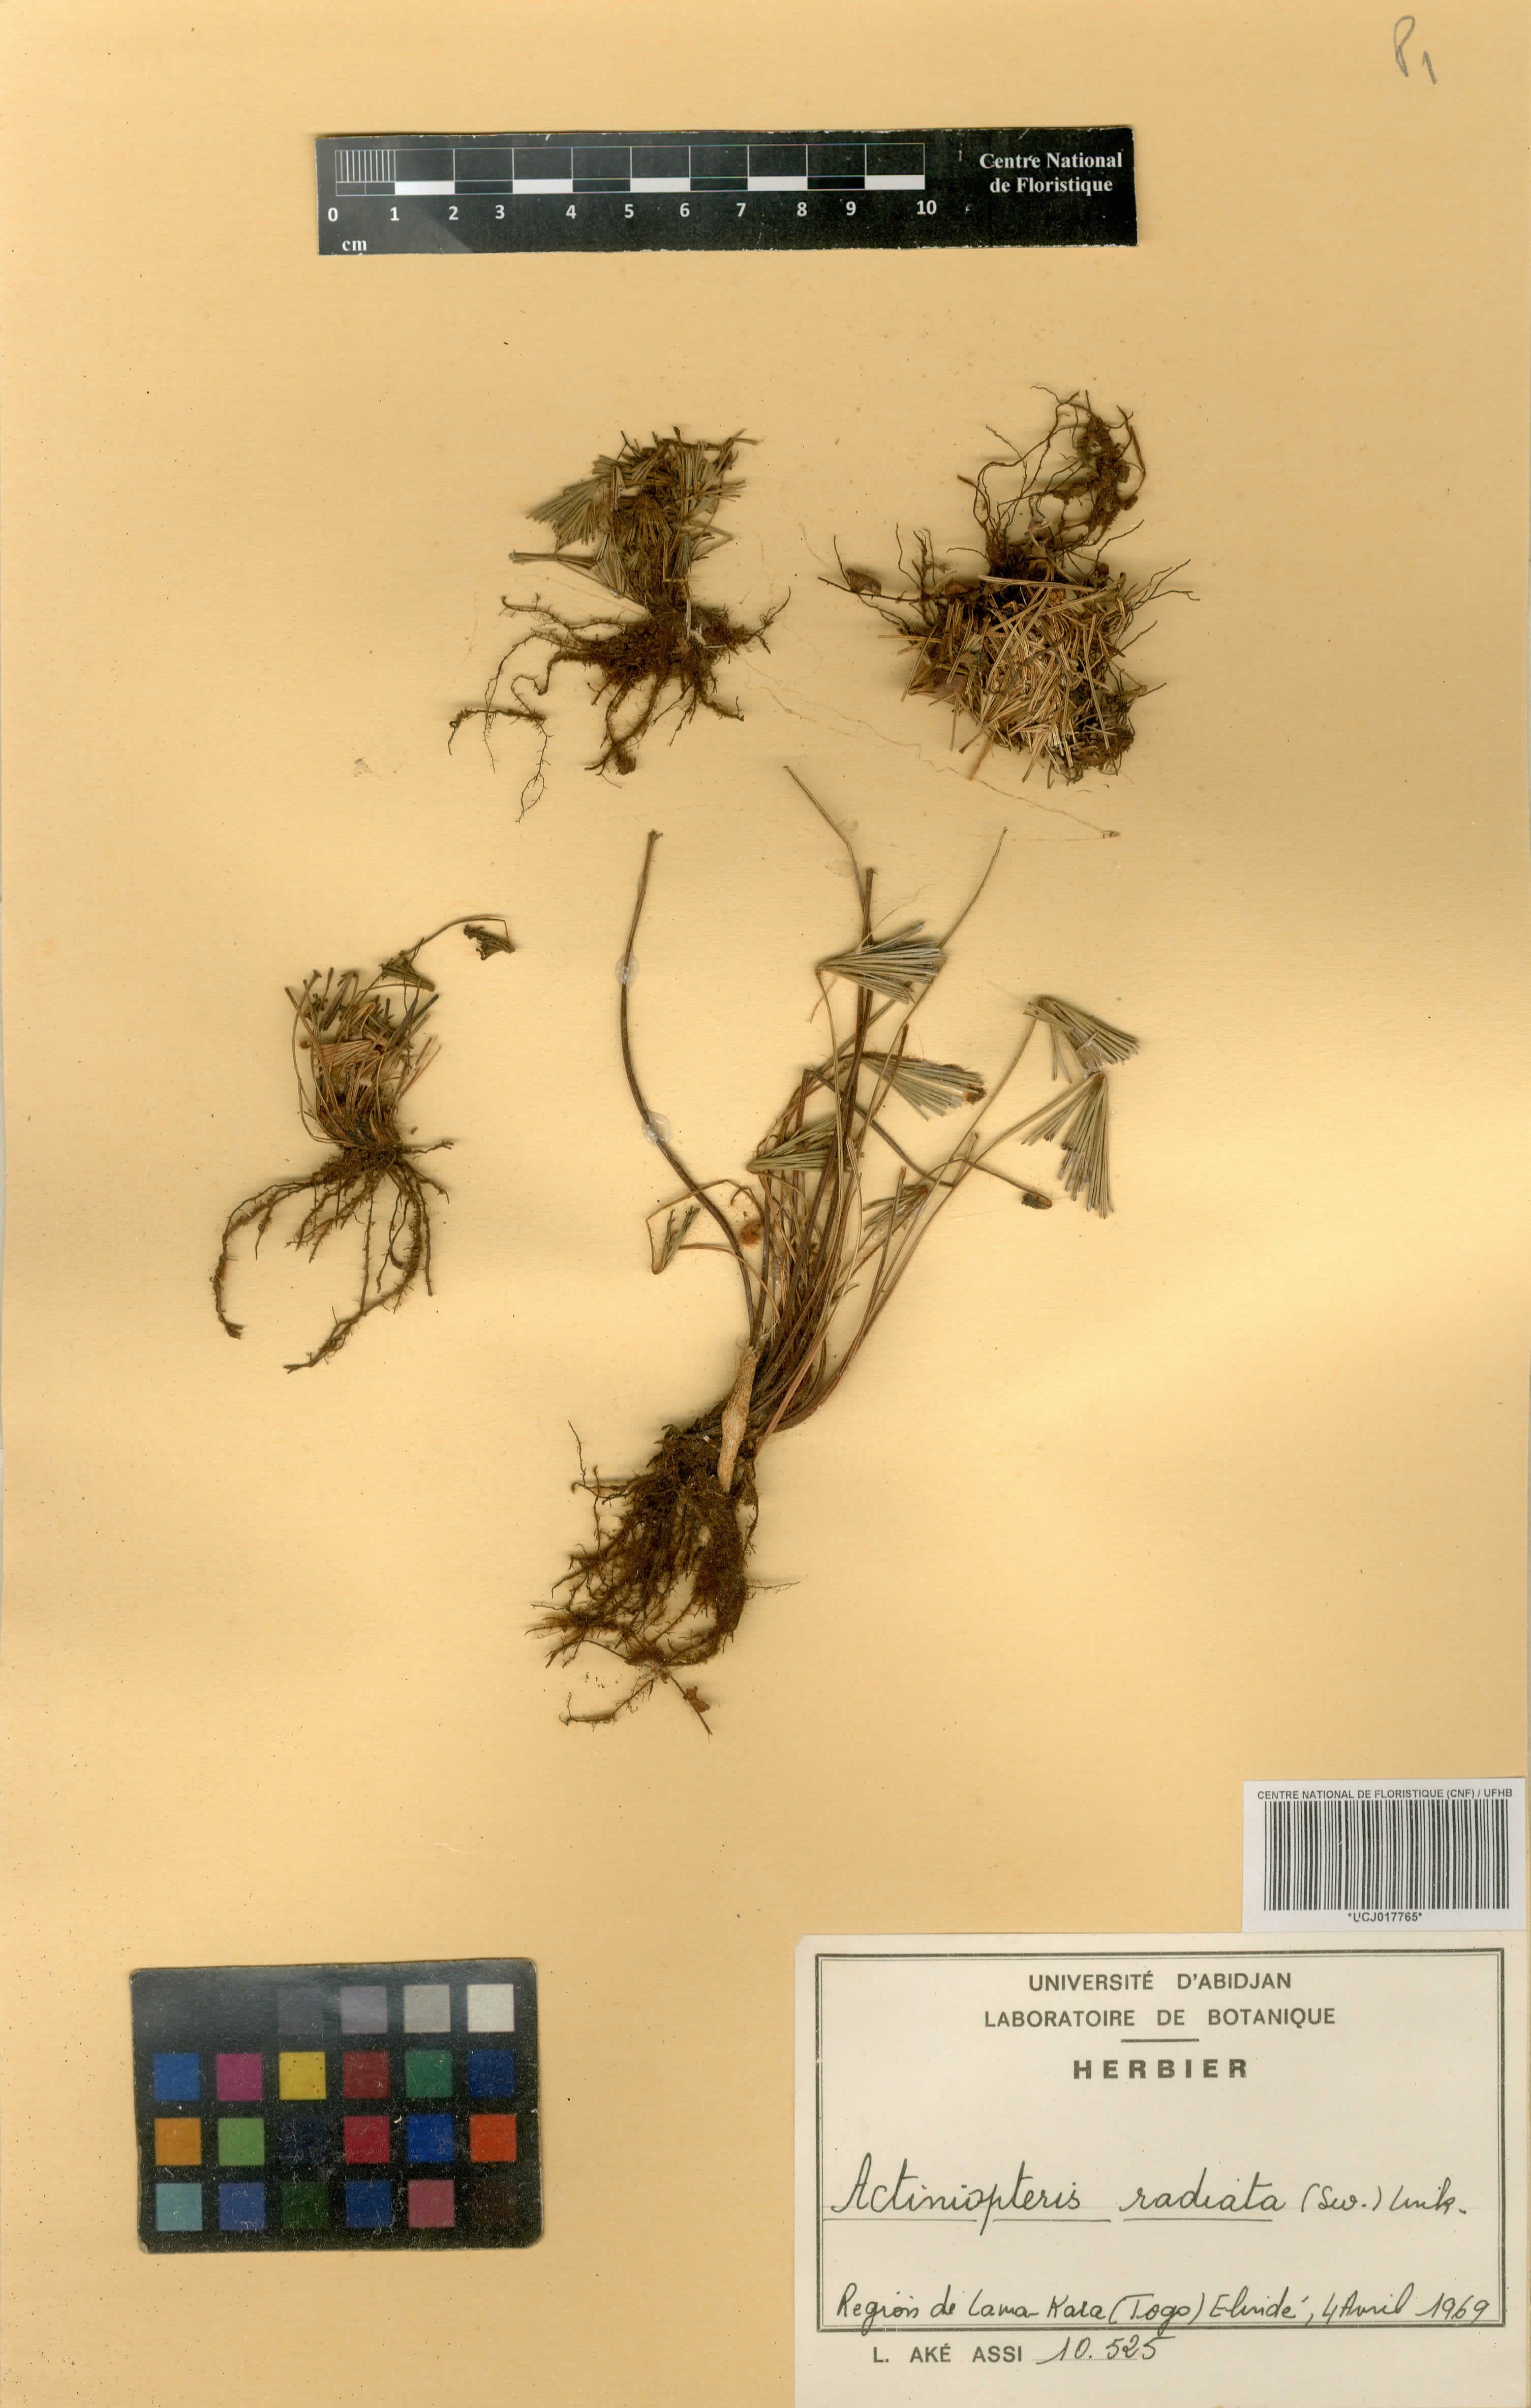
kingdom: Plantae
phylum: Tracheophyta
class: Polypodiopsida
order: Polypodiales
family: Pteridaceae
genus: Actiniopteris
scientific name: Actiniopteris radiata
